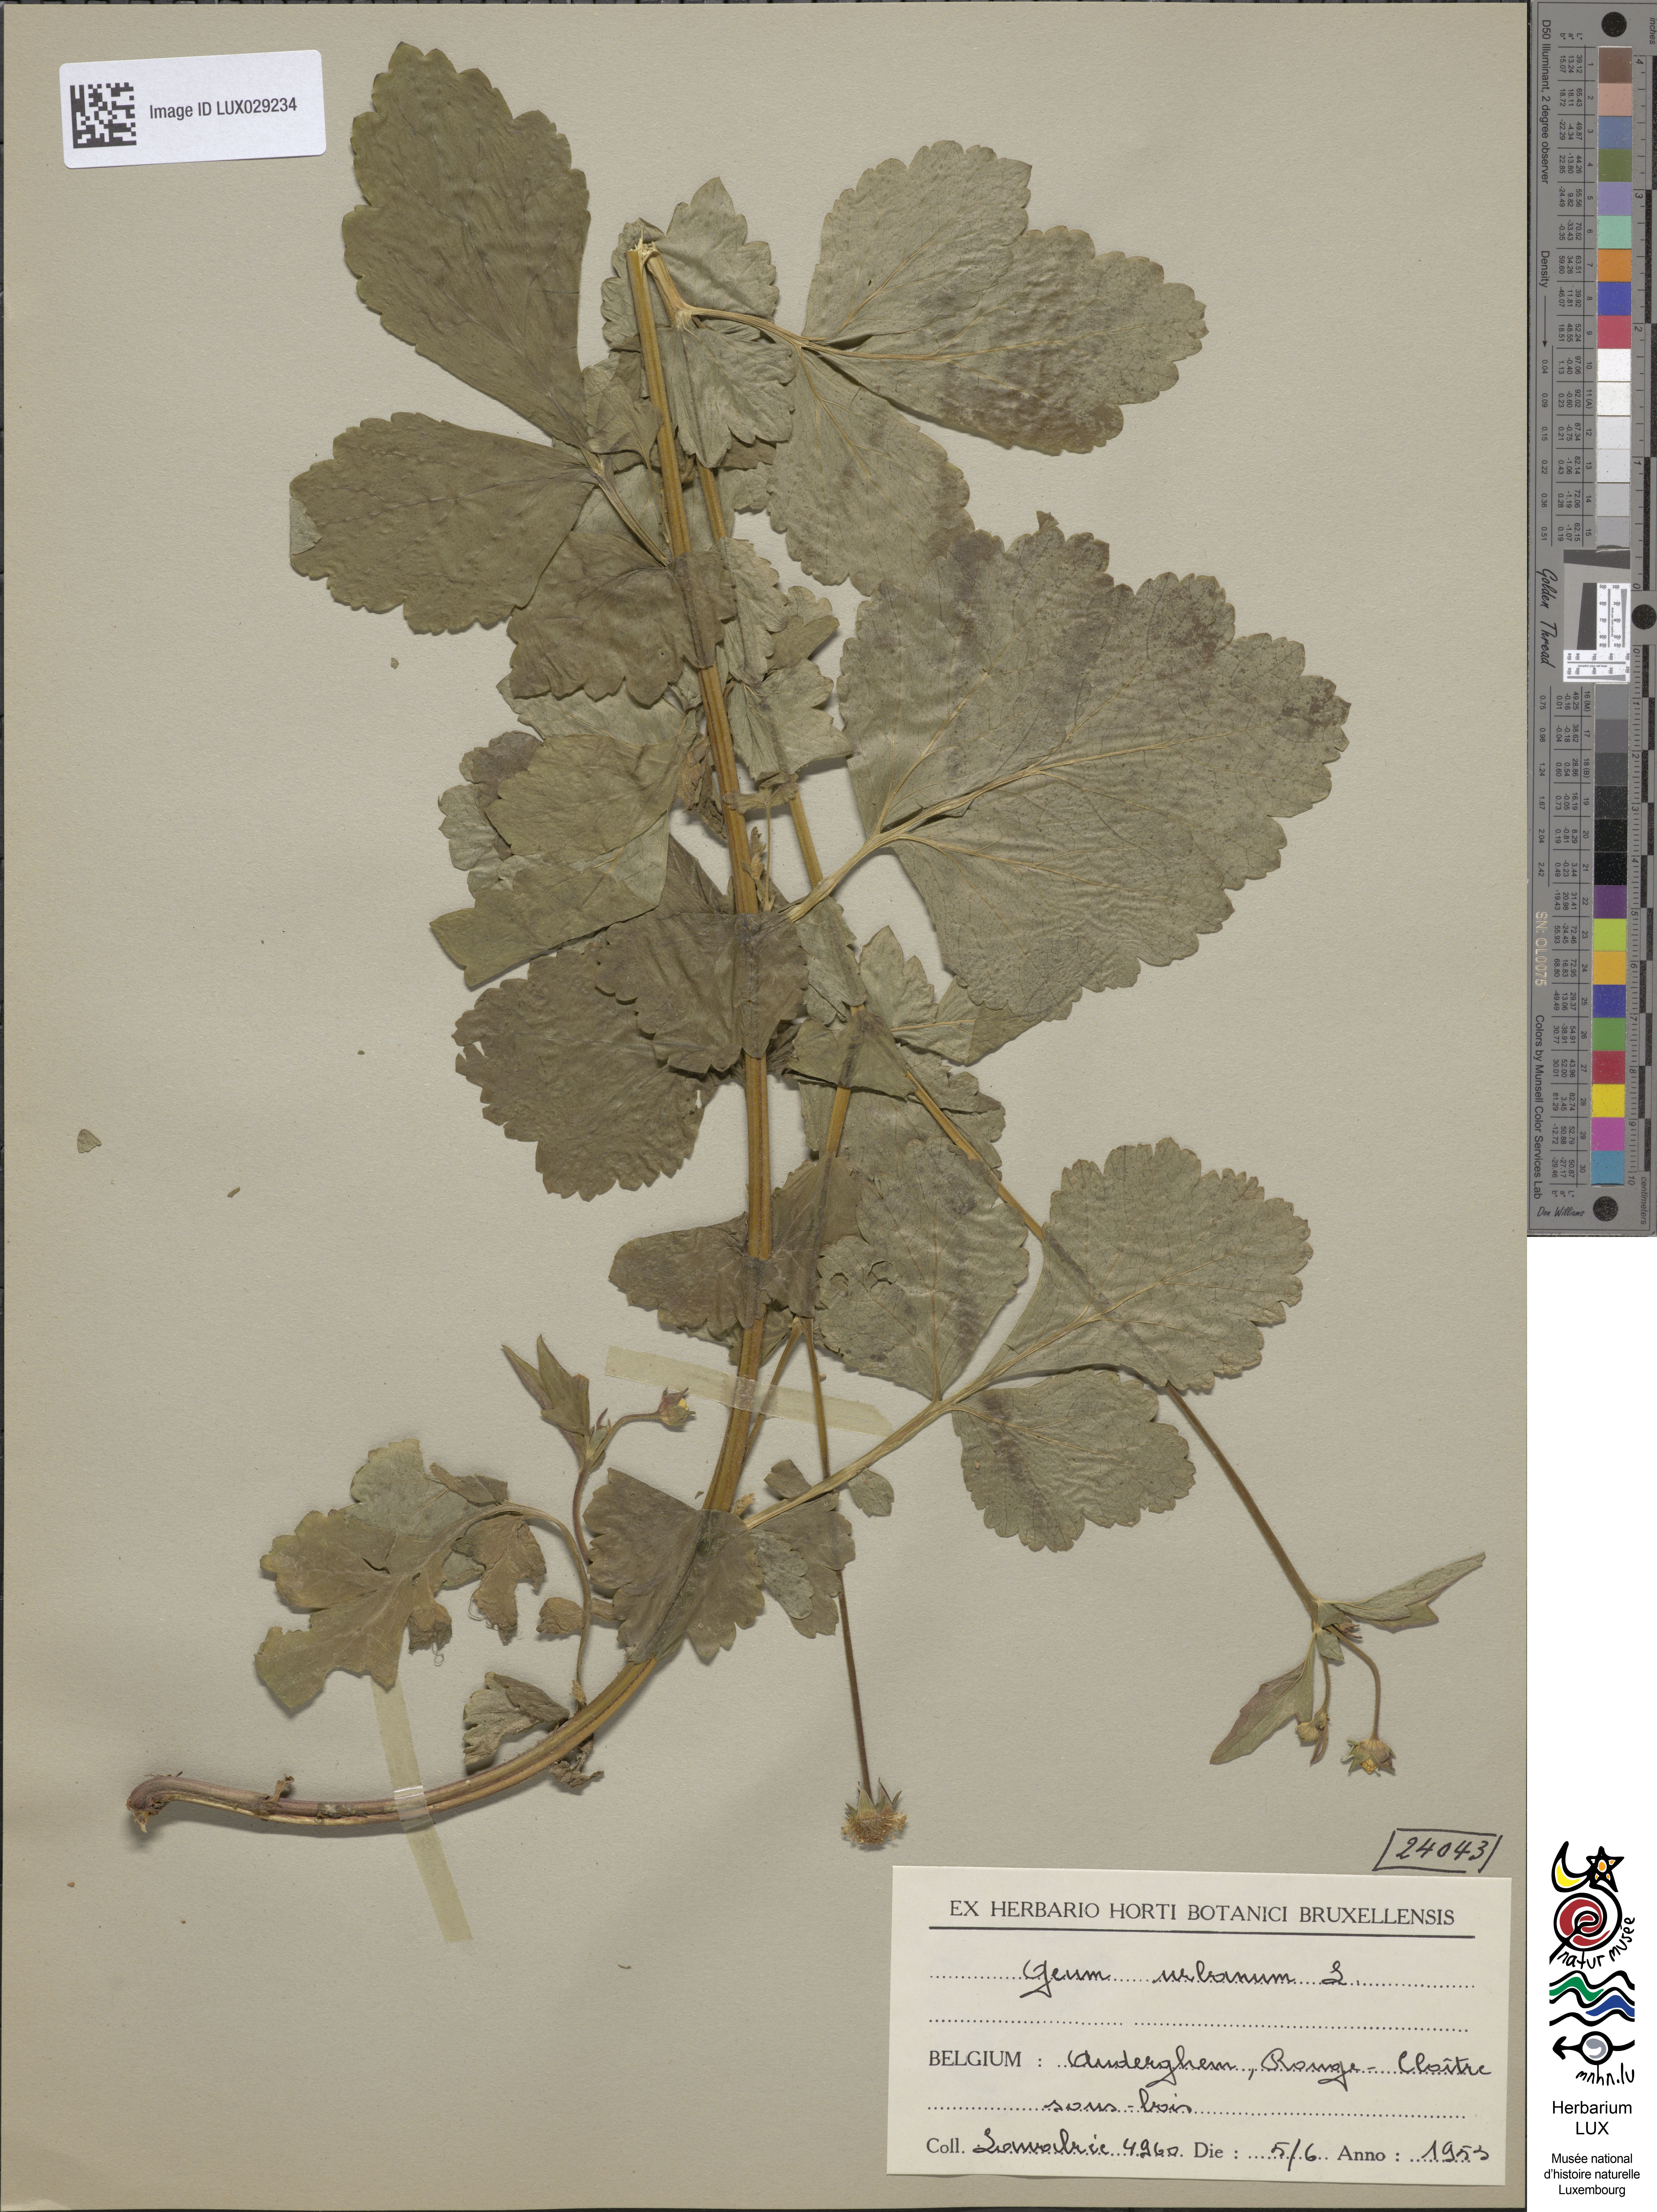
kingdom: Plantae
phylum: Tracheophyta
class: Magnoliopsida
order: Rosales
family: Rosaceae
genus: Geum
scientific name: Geum urbanum
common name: Wood avens
